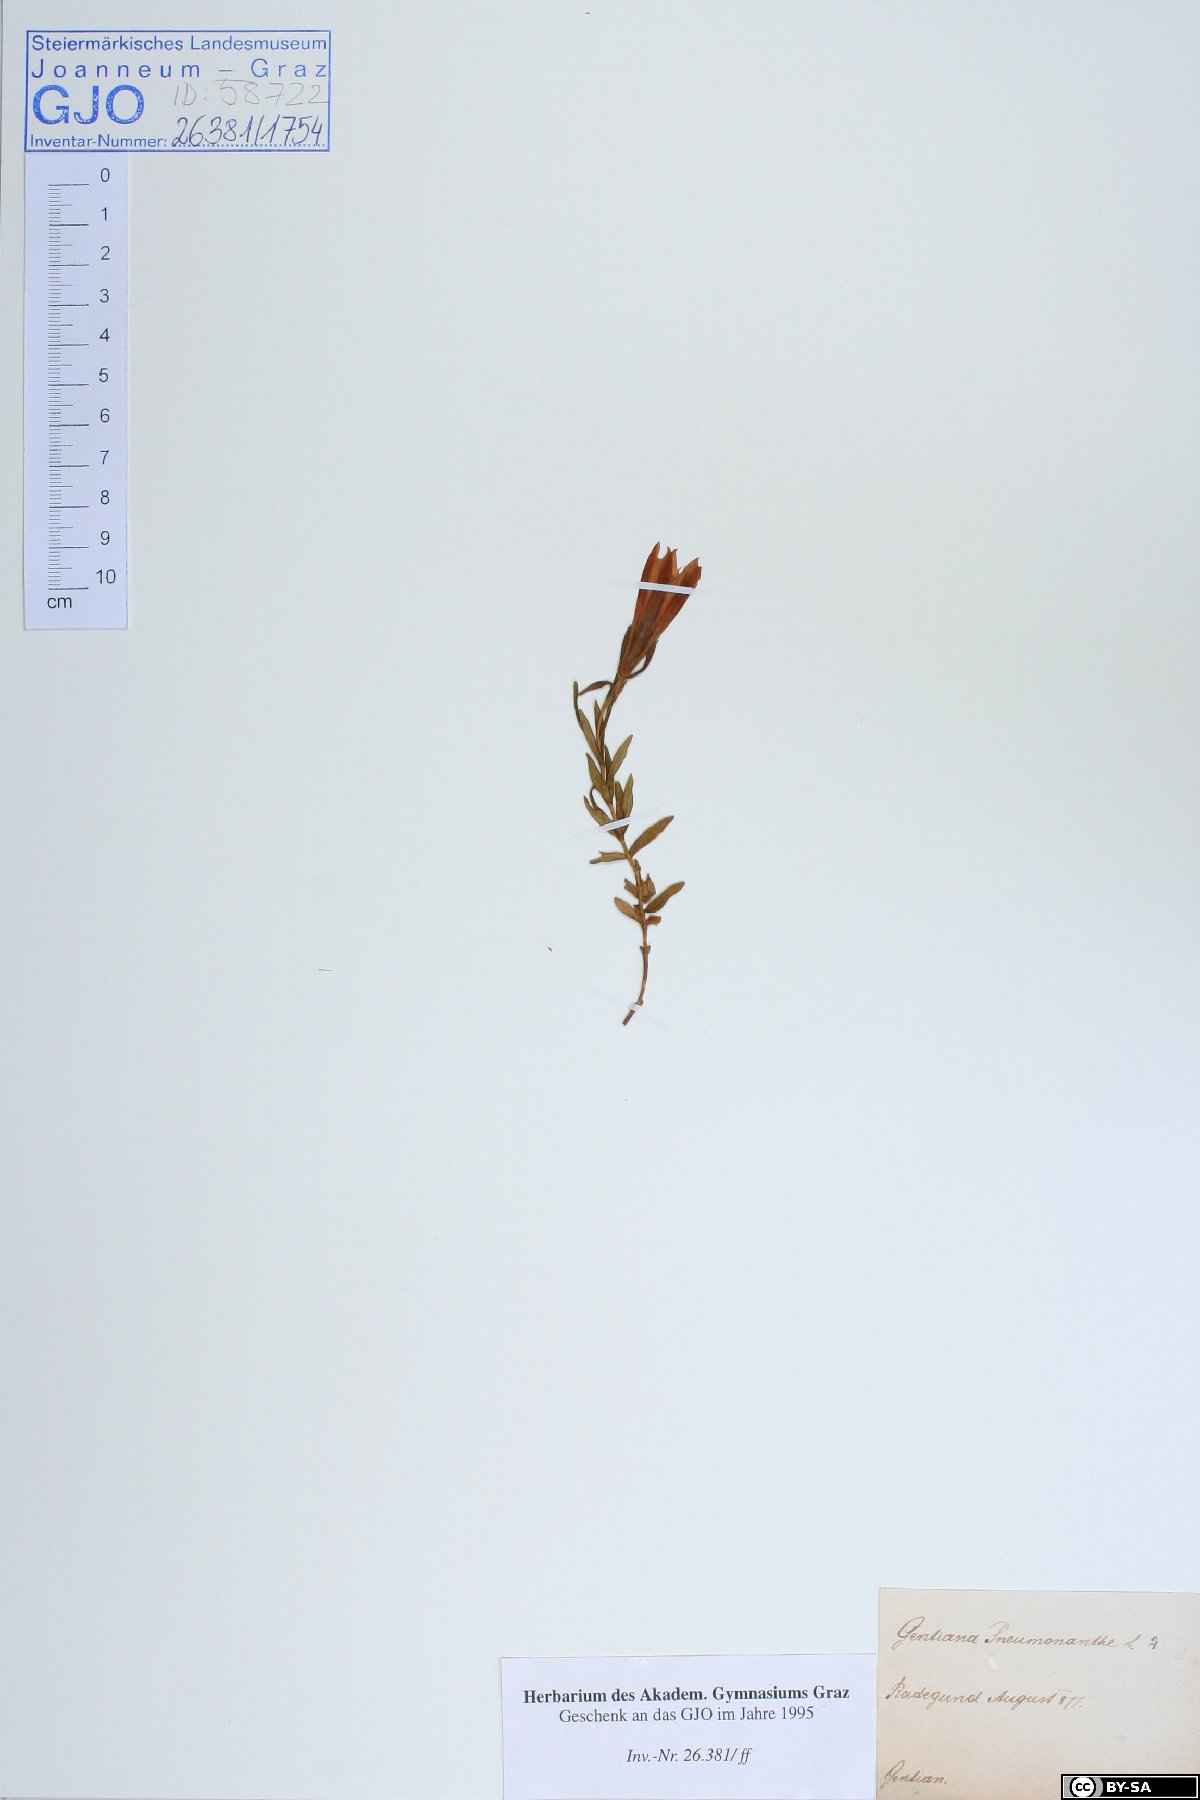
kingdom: Plantae
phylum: Tracheophyta
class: Magnoliopsida
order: Gentianales
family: Gentianaceae
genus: Gentiana
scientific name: Gentiana pneumonanthe
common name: Marsh gentian
